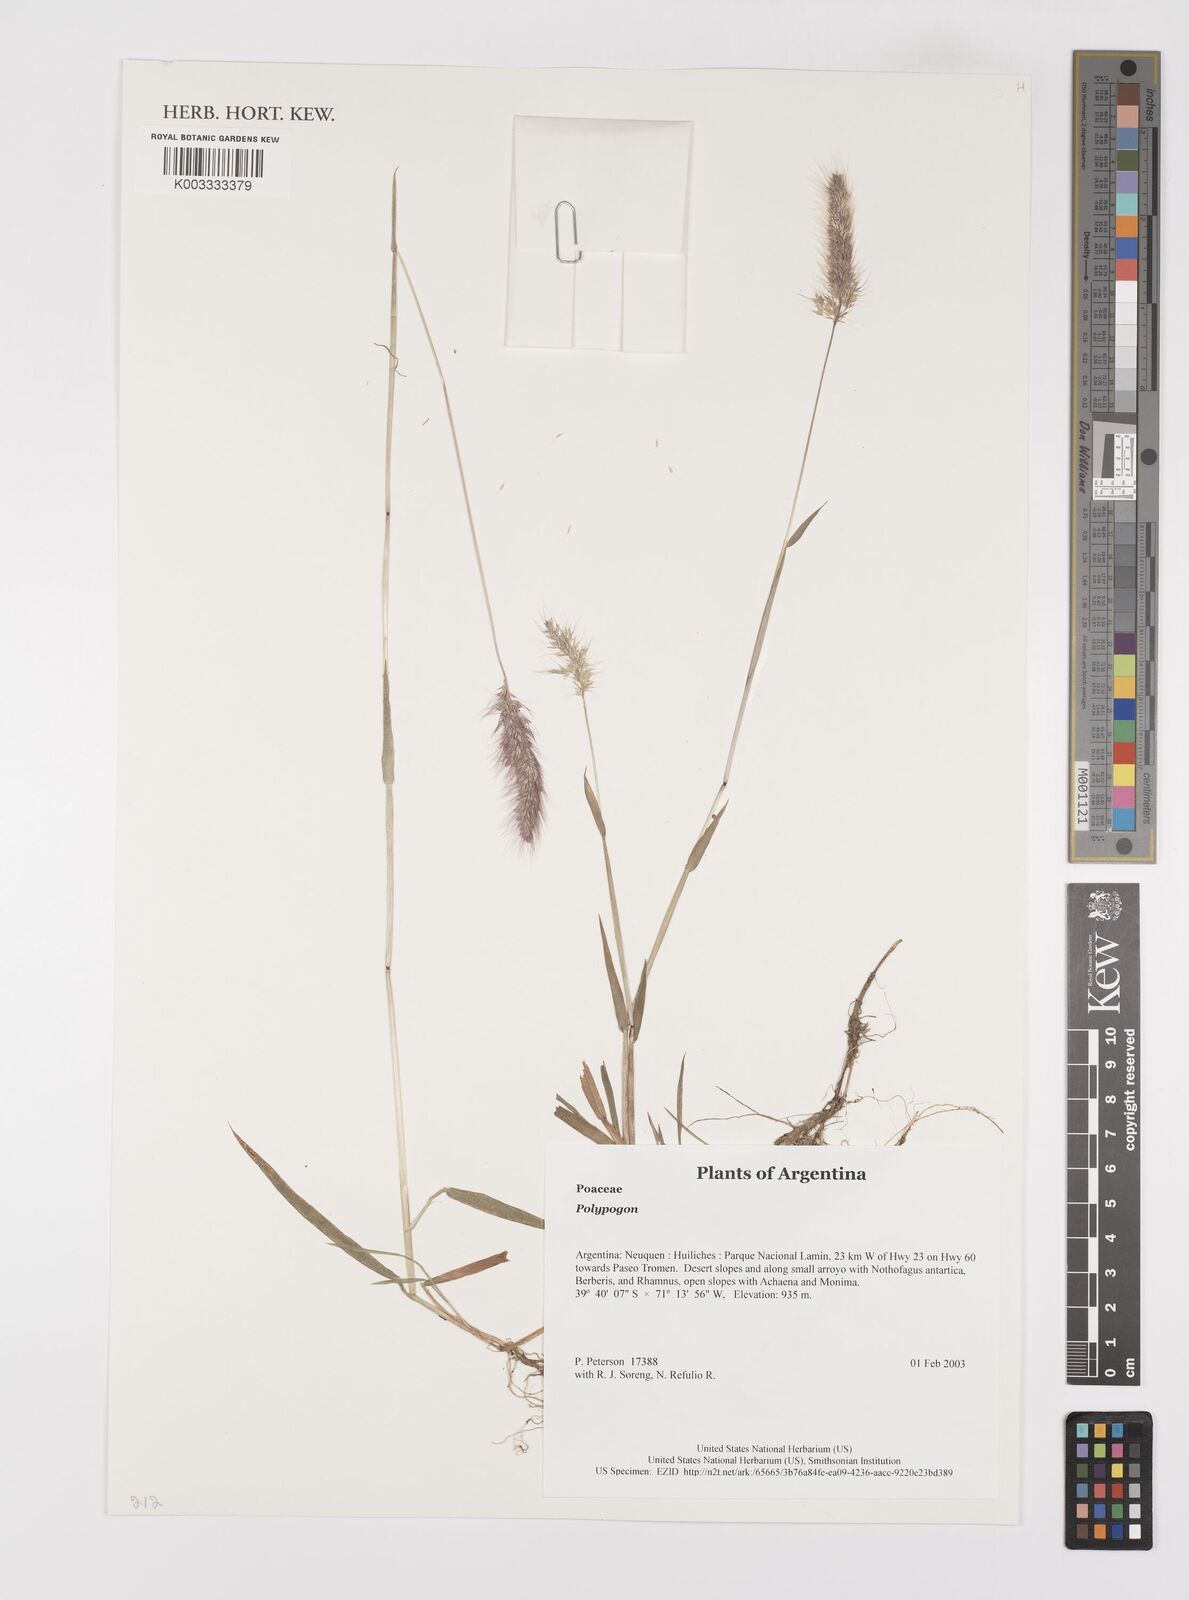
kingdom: Plantae
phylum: Tracheophyta
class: Liliopsida
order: Poales
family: Poaceae
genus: Polypogon
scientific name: Polypogon
